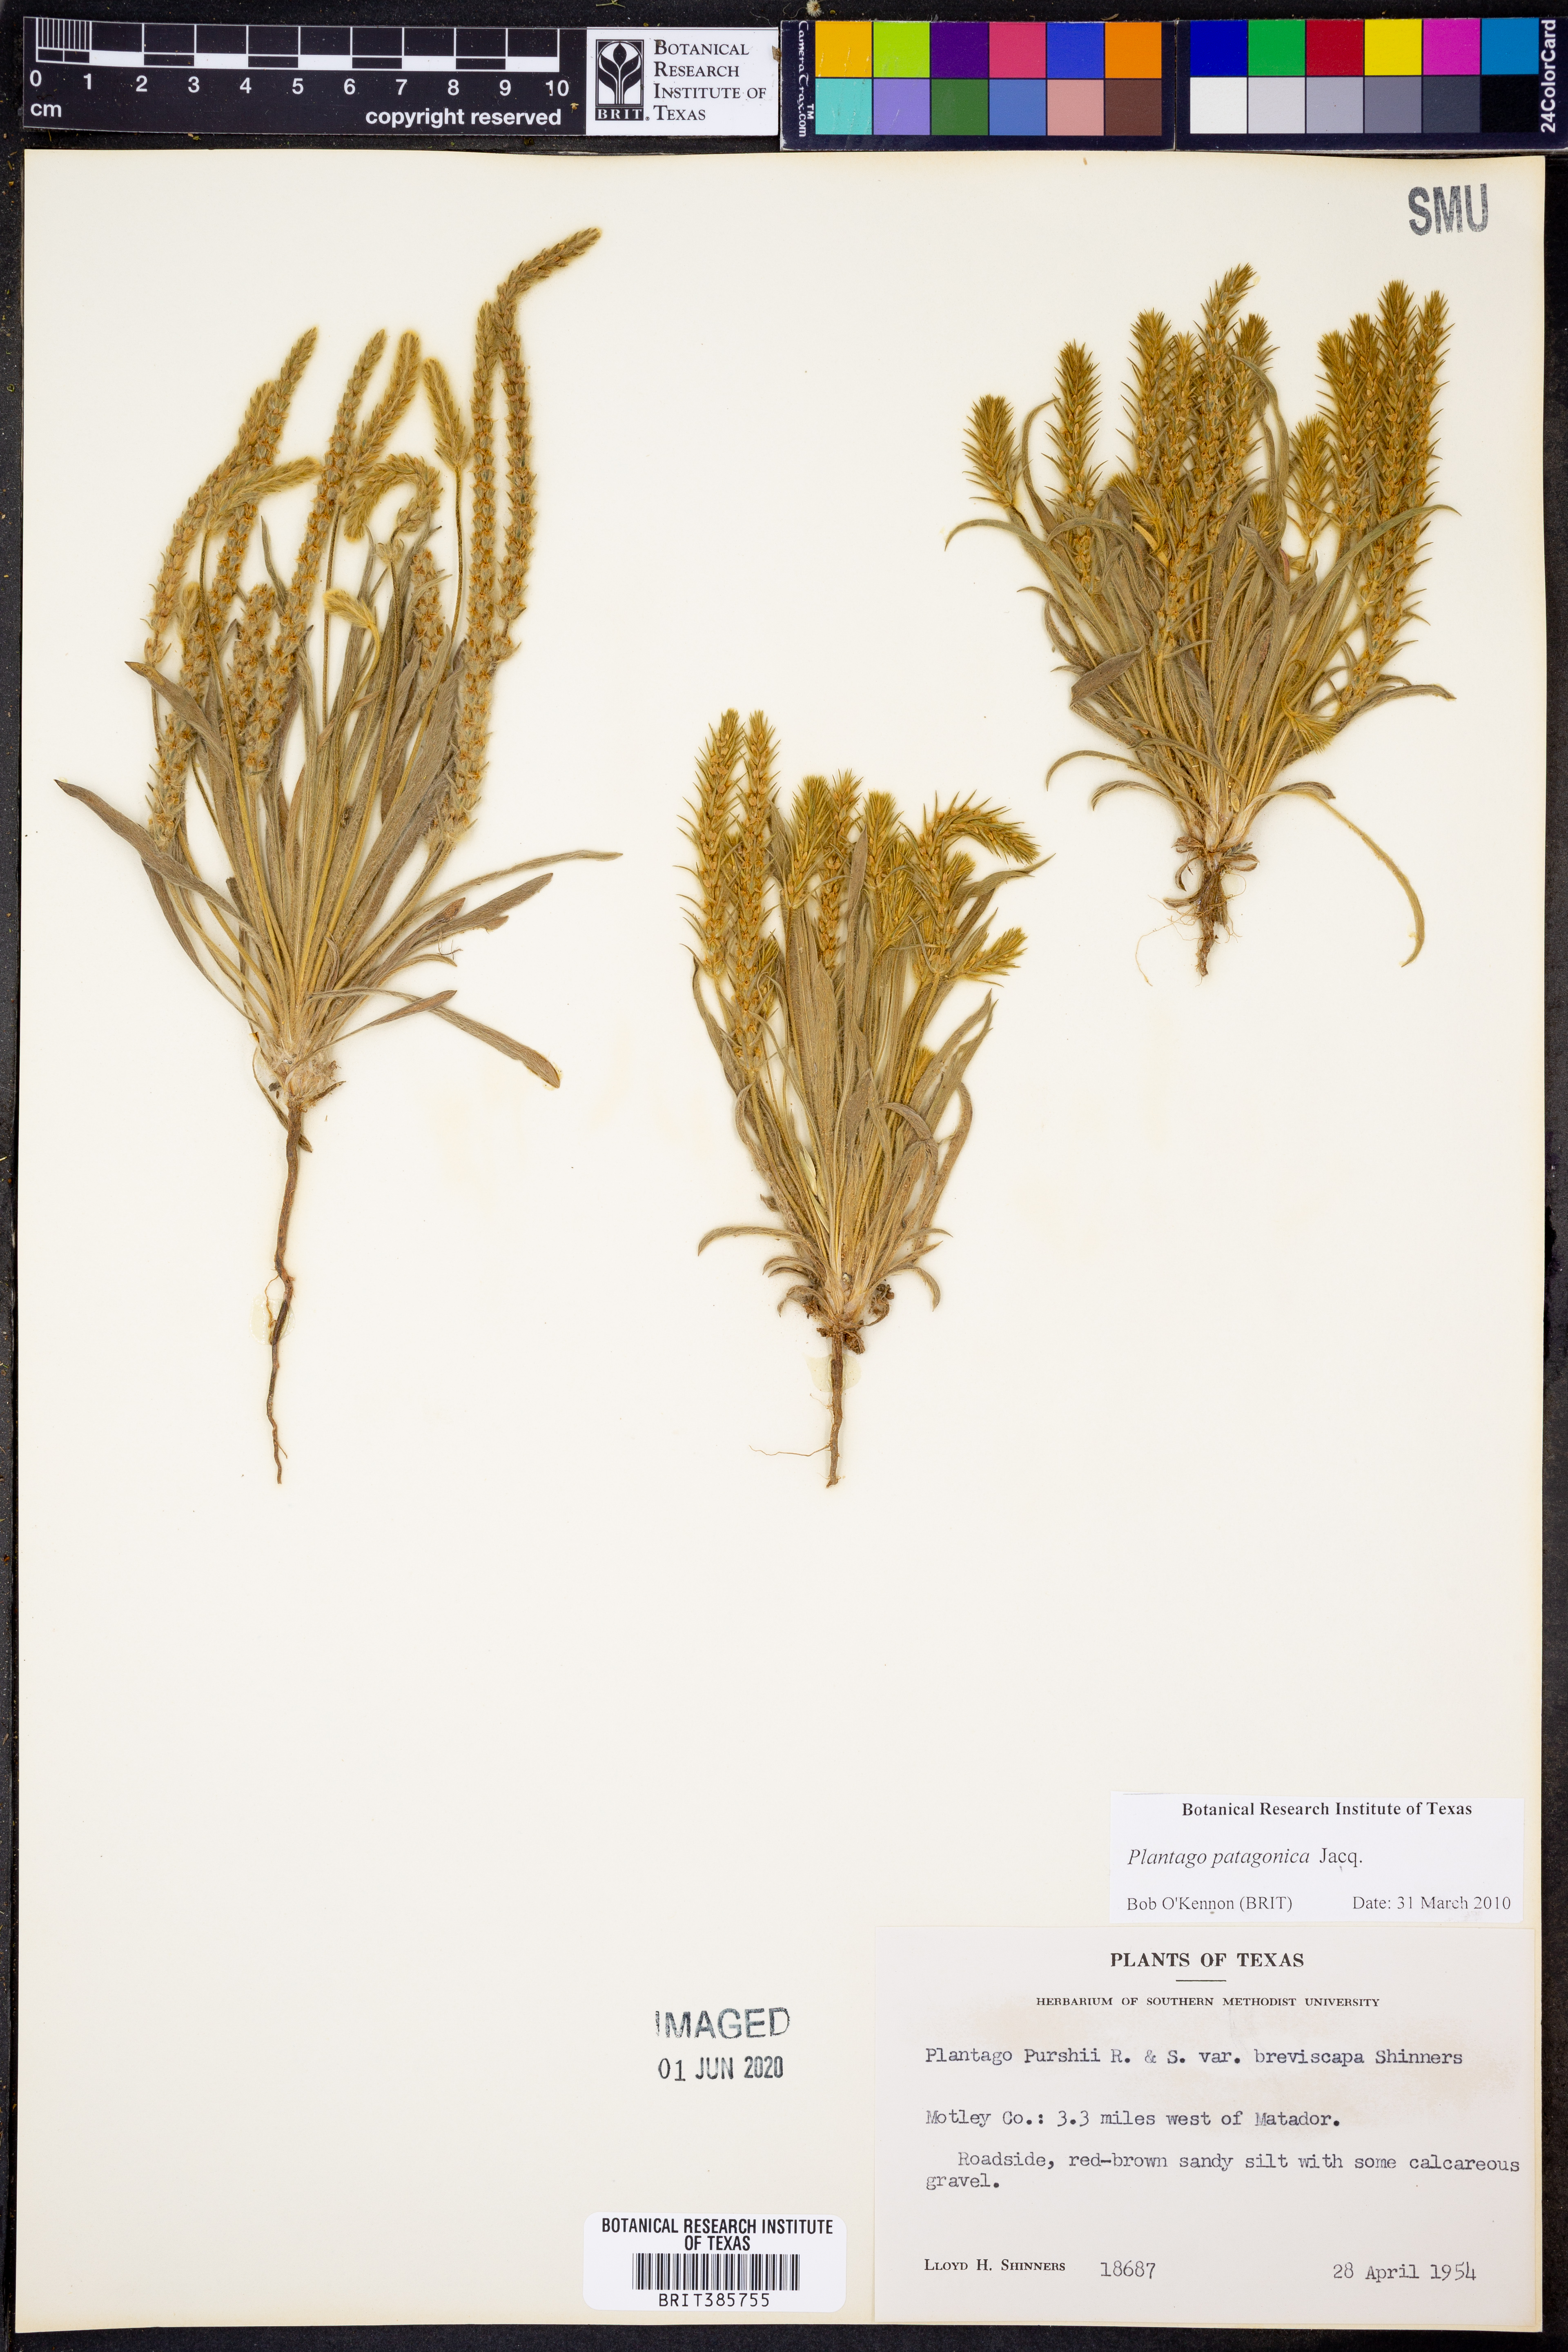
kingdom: Plantae
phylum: Tracheophyta
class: Magnoliopsida
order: Lamiales
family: Plantaginaceae
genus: Plantago
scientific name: Plantago patagonica
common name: Patagonia indian-wheat
